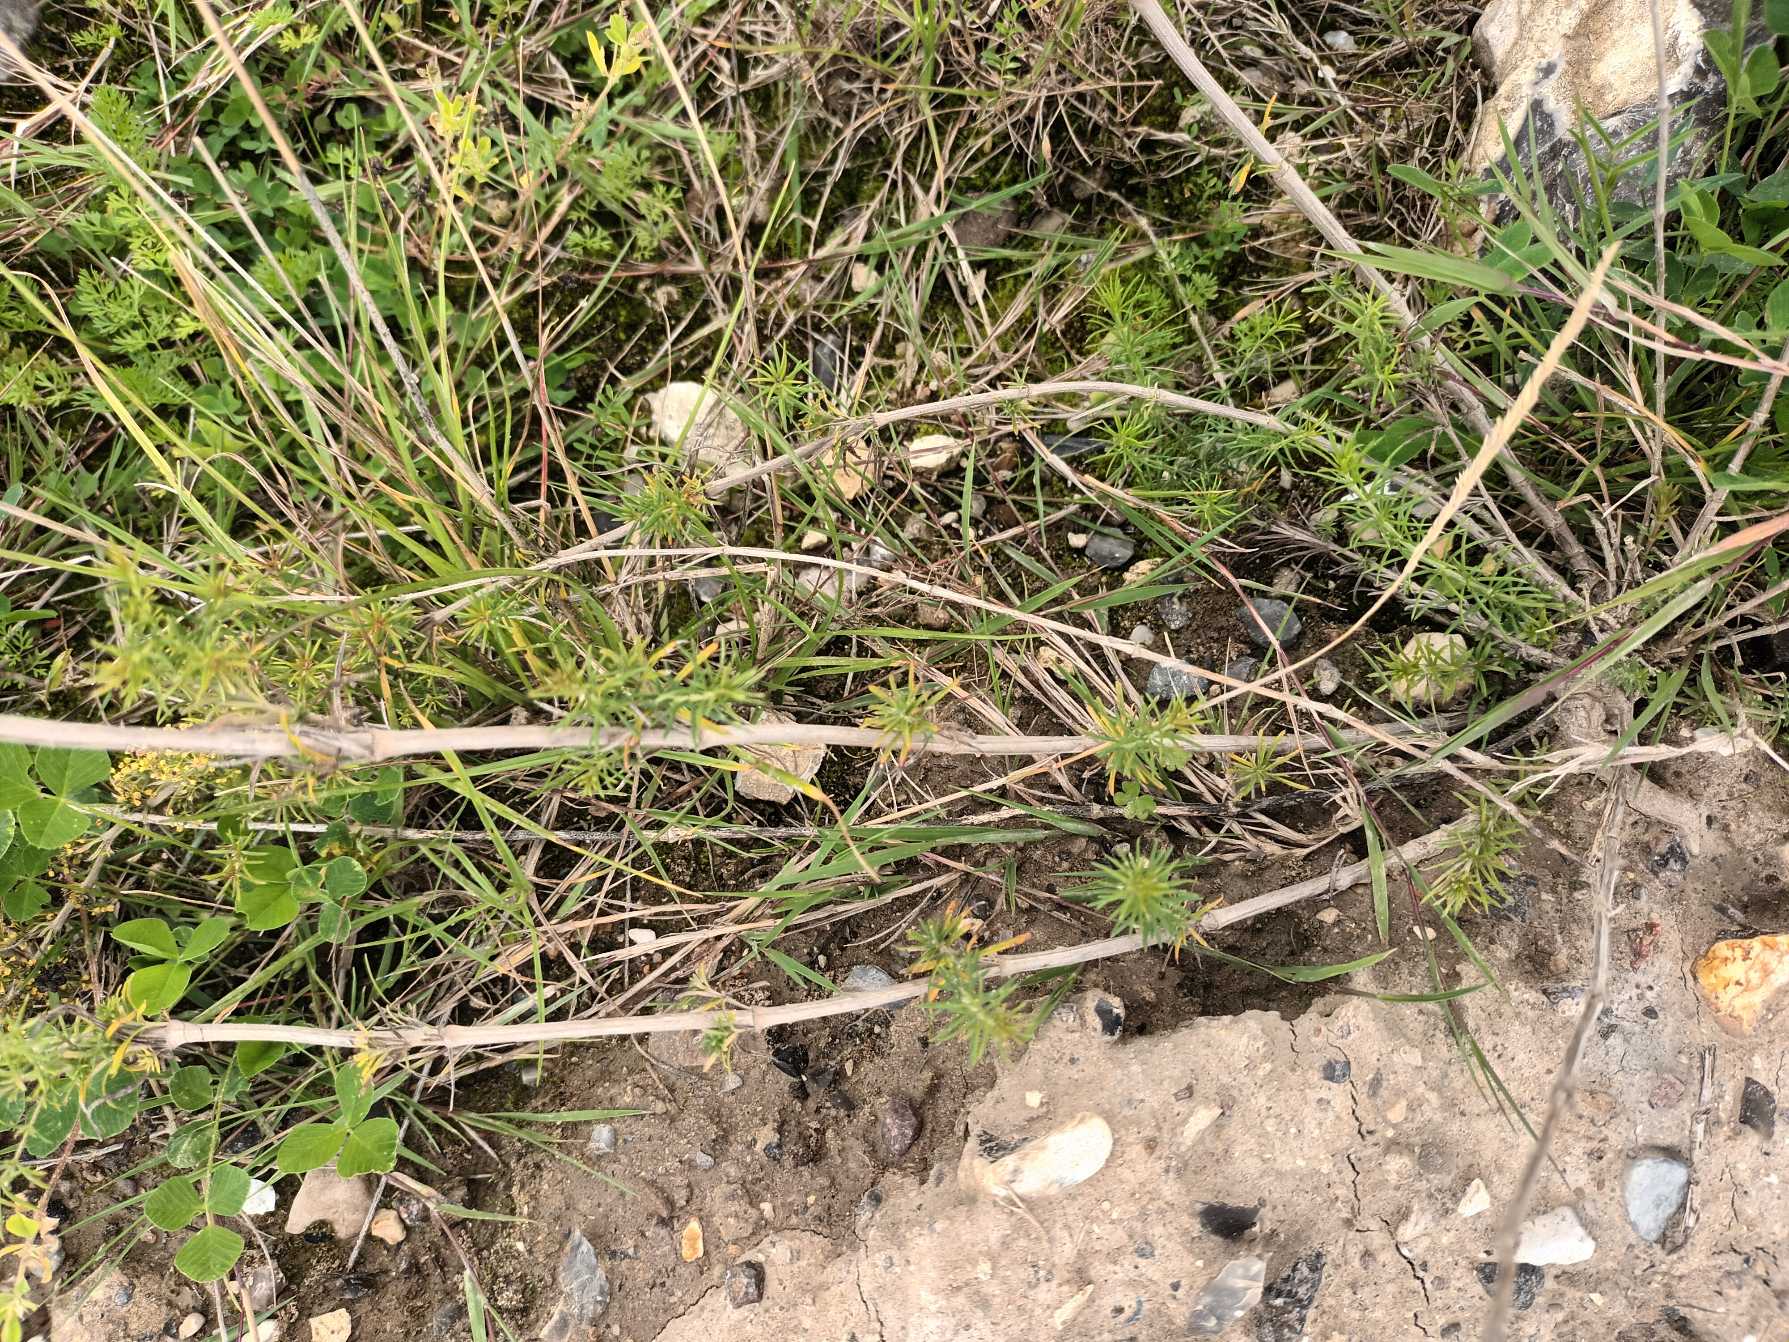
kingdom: Plantae
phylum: Tracheophyta
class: Magnoliopsida
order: Gentianales
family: Rubiaceae
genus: Galium
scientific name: Galium verum
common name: Gul snerre
